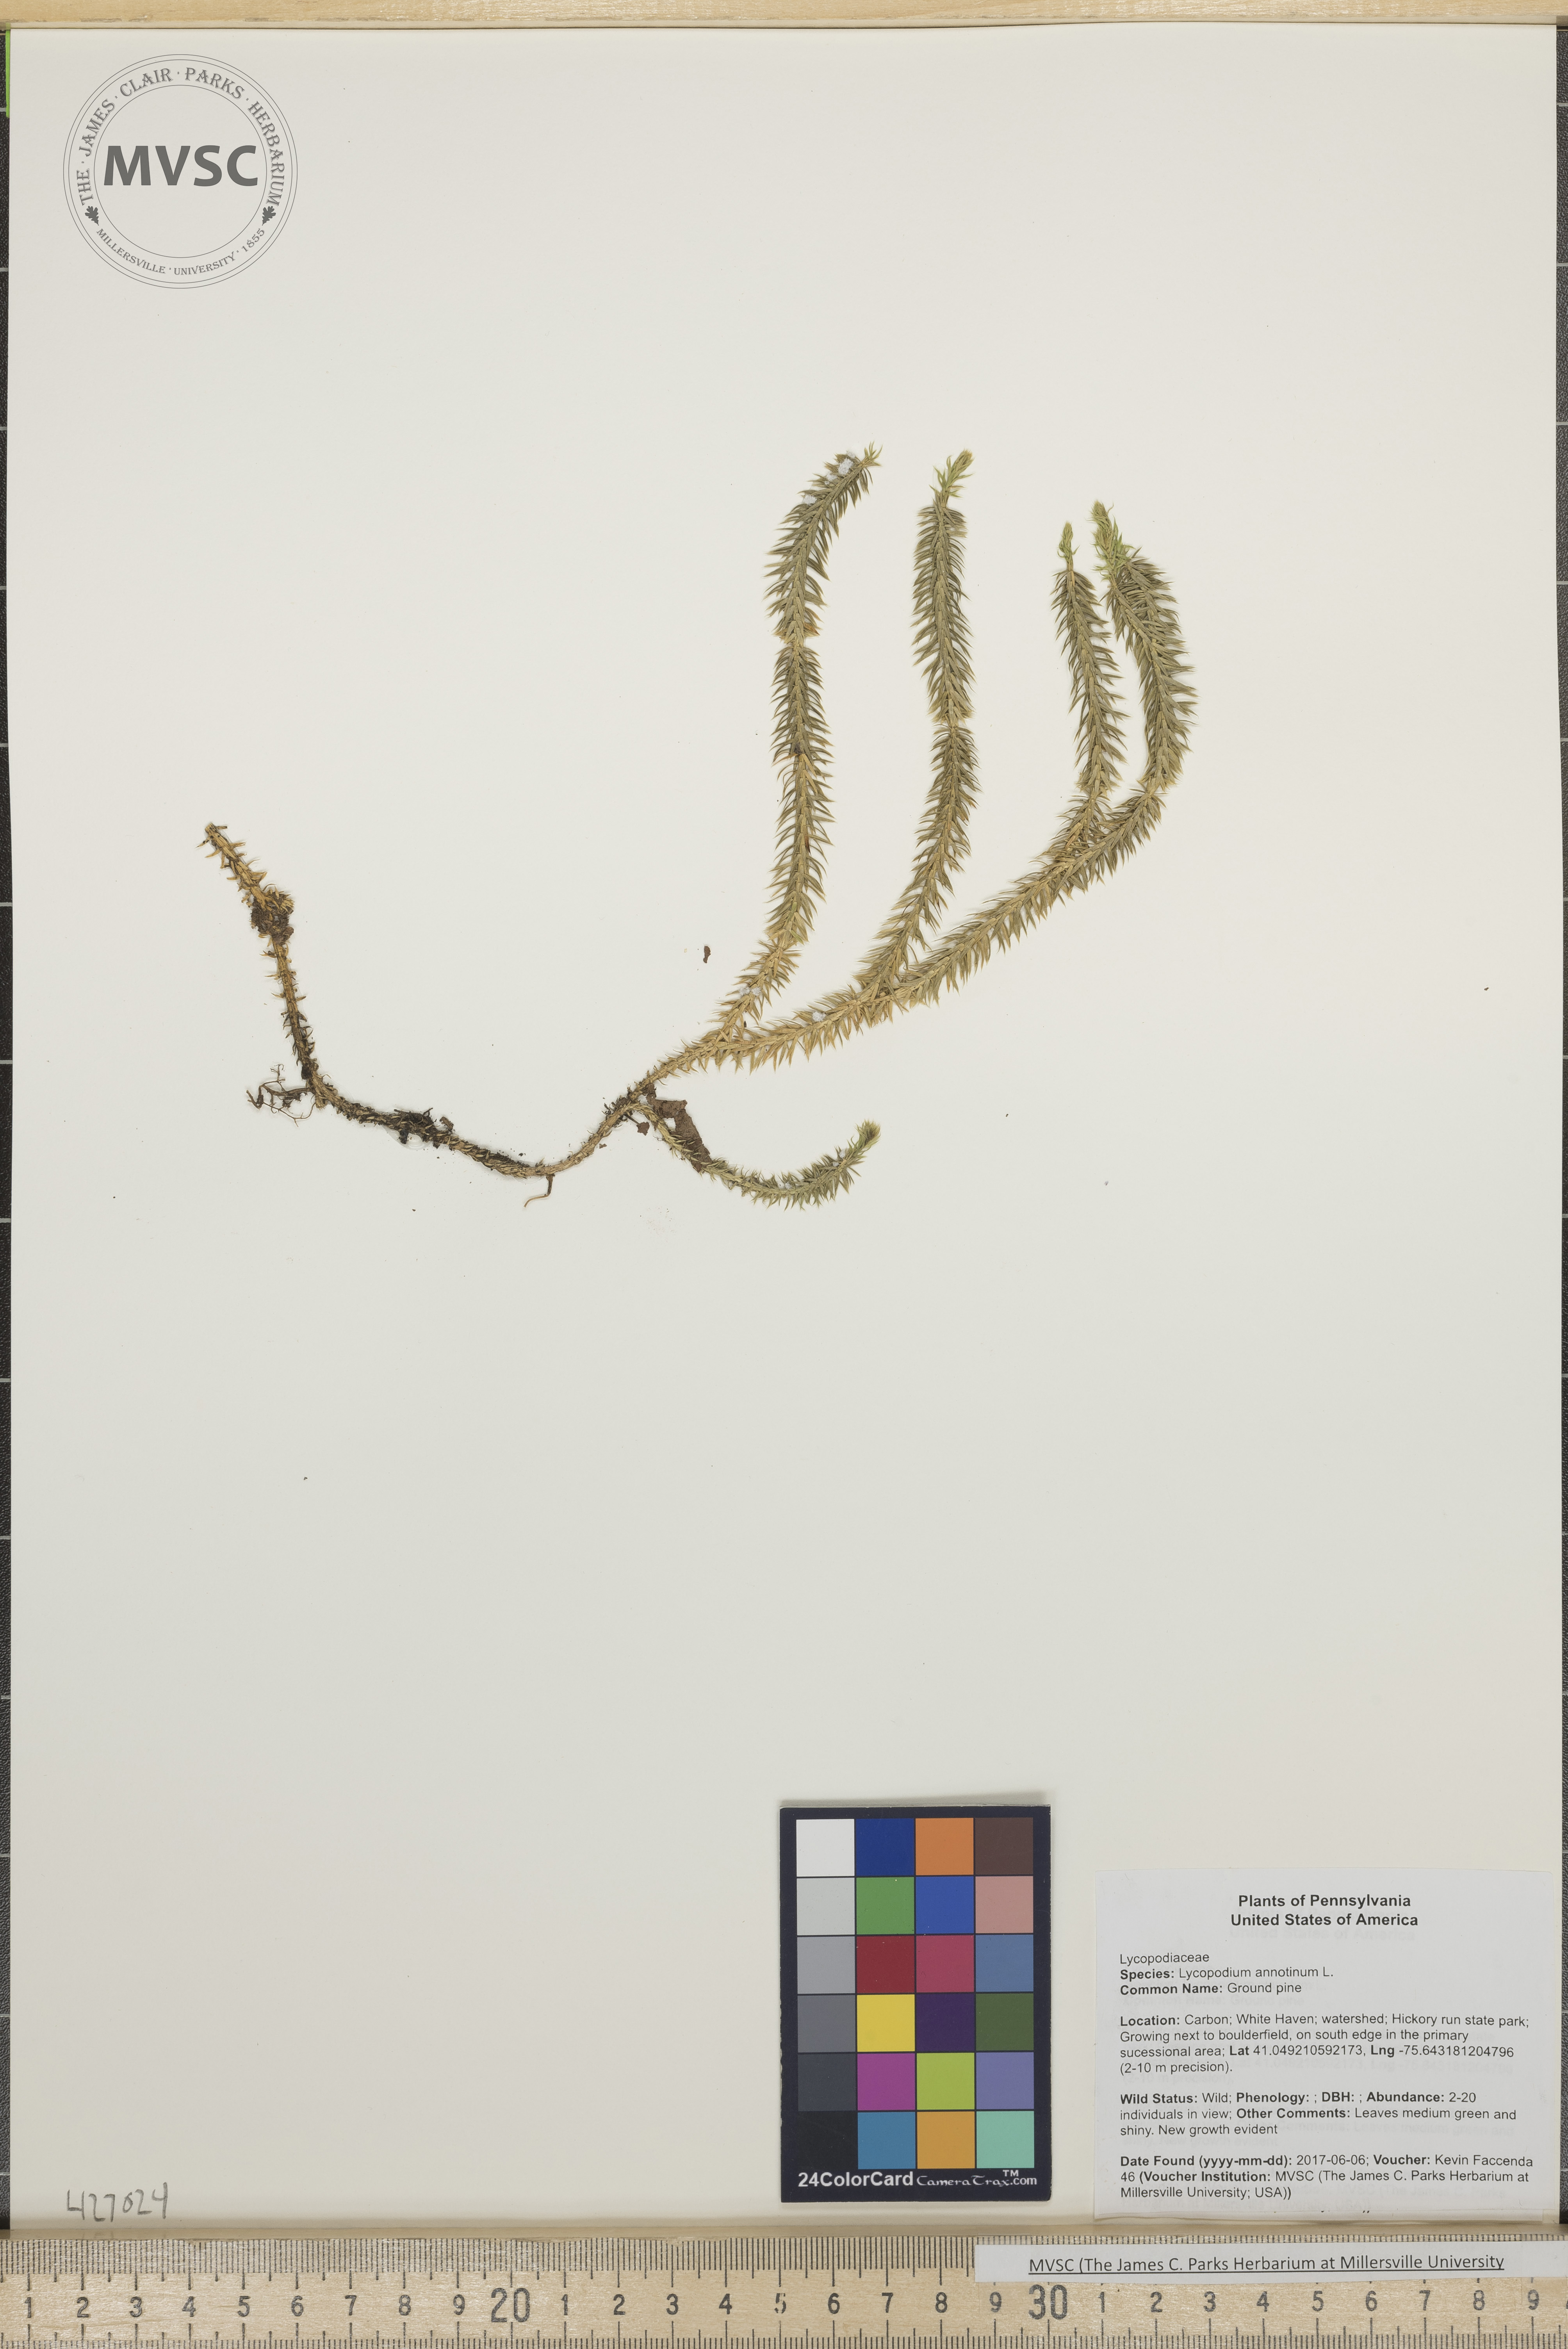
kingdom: Plantae
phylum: Tracheophyta
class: Lycopodiopsida
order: Lycopodiales
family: Lycopodiaceae
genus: Spinulum
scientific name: Spinulum annotinum
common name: Ground pine
